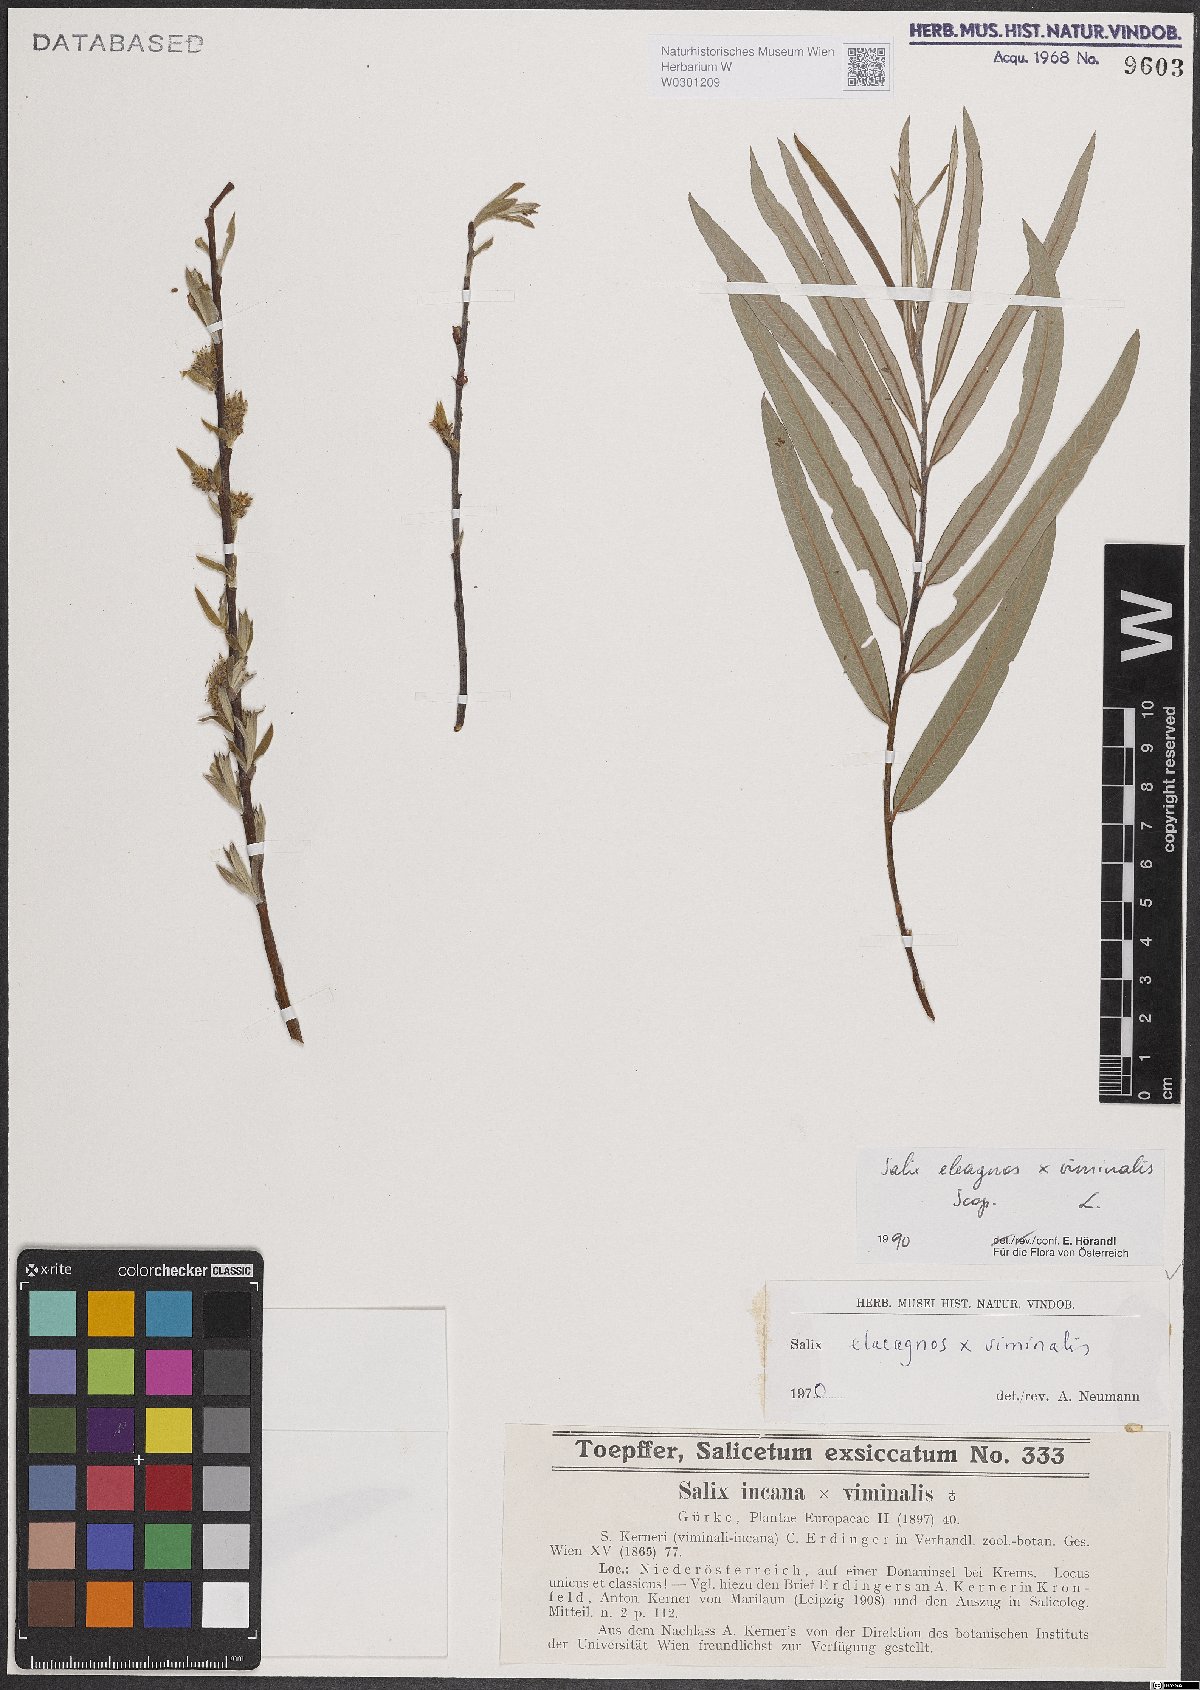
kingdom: Plantae
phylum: Tracheophyta
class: Magnoliopsida
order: Malpighiales
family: Salicaceae
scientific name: Salicaceae
